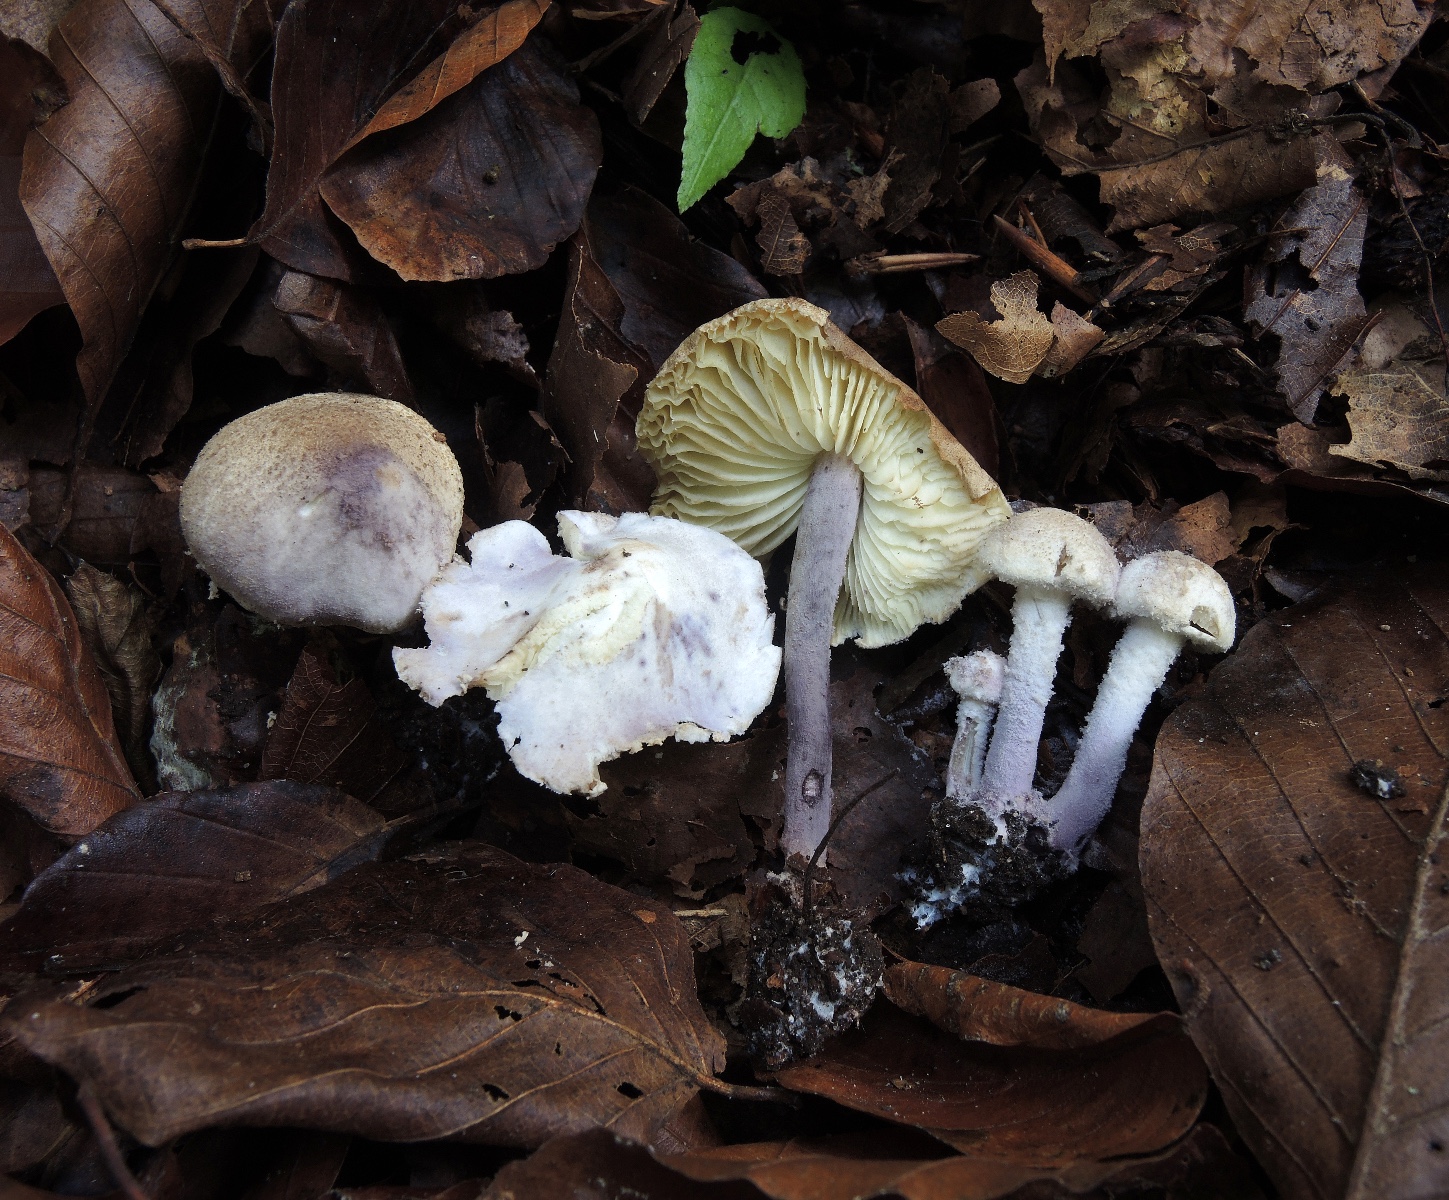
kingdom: Fungi
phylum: Basidiomycota
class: Agaricomycetes
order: Agaricales
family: Agaricaceae
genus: Cystolepiota
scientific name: Cystolepiota bucknallii
